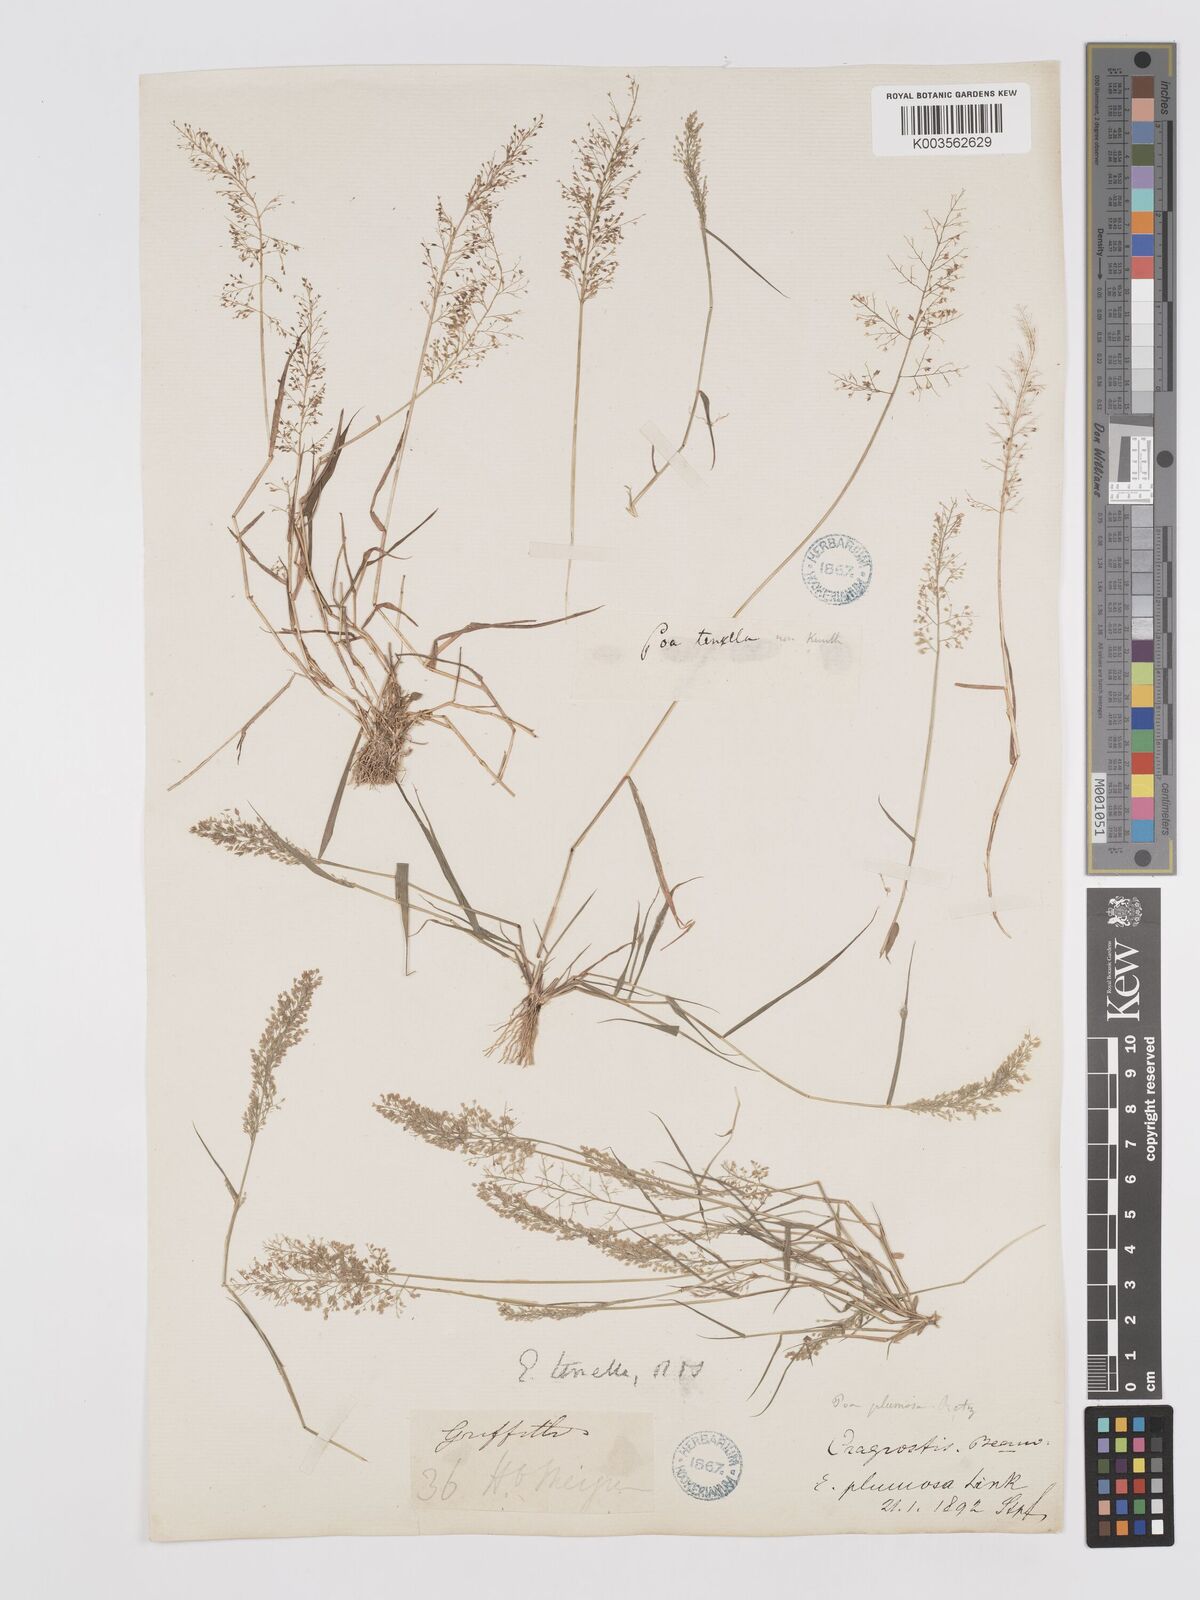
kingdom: Plantae
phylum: Tracheophyta
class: Liliopsida
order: Poales
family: Poaceae
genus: Eragrostis
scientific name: Eragrostis tenella
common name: Japanese lovegrass
